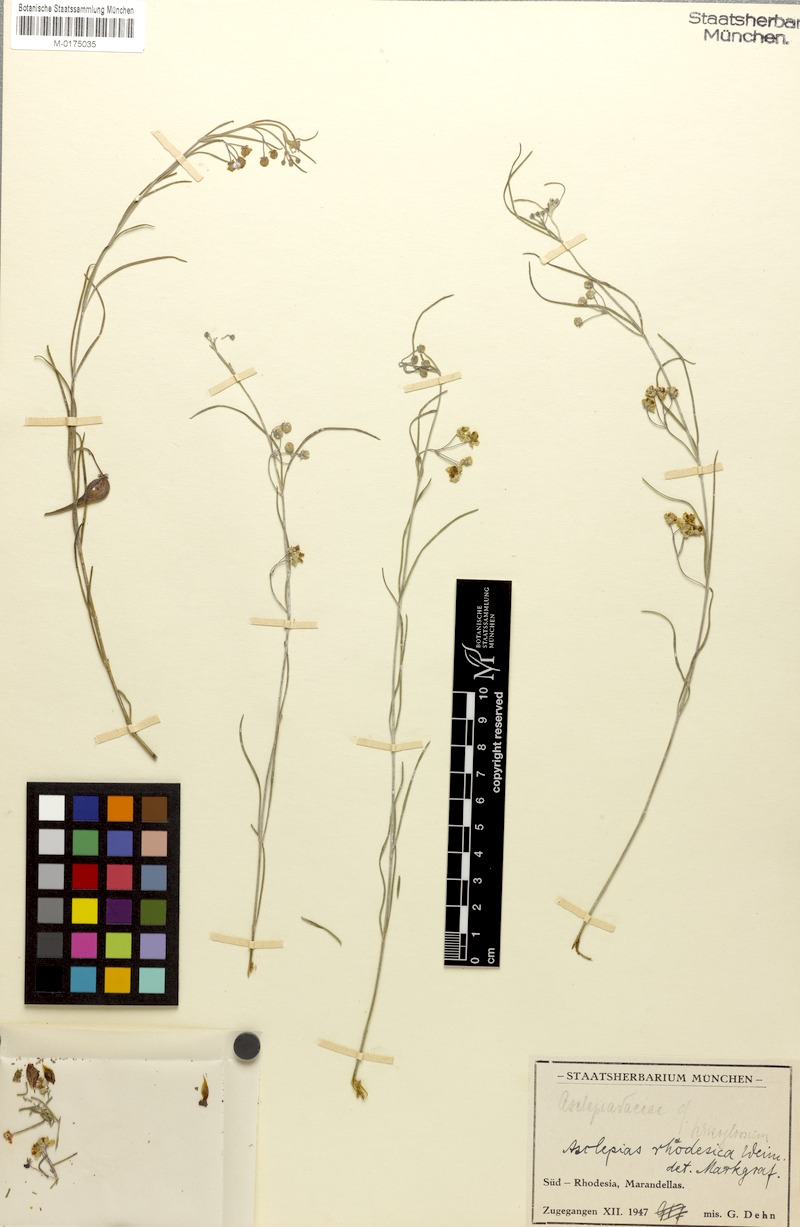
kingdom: Plantae
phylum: Tracheophyta
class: Magnoliopsida
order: Gentianales
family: Apocynaceae
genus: Gomphocarpus
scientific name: Gomphocarpus tenuifolius
